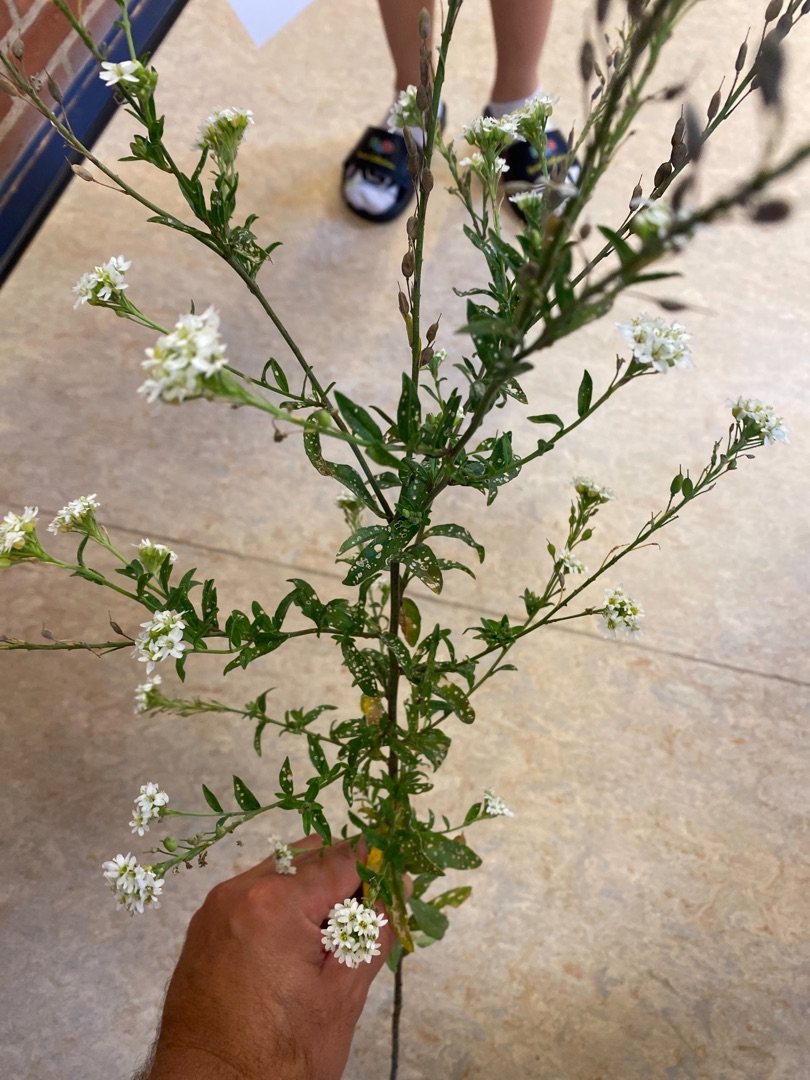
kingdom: Plantae
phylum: Tracheophyta
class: Magnoliopsida
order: Brassicales
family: Brassicaceae
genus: Berteroa
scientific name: Berteroa incana
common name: Kløvplade
